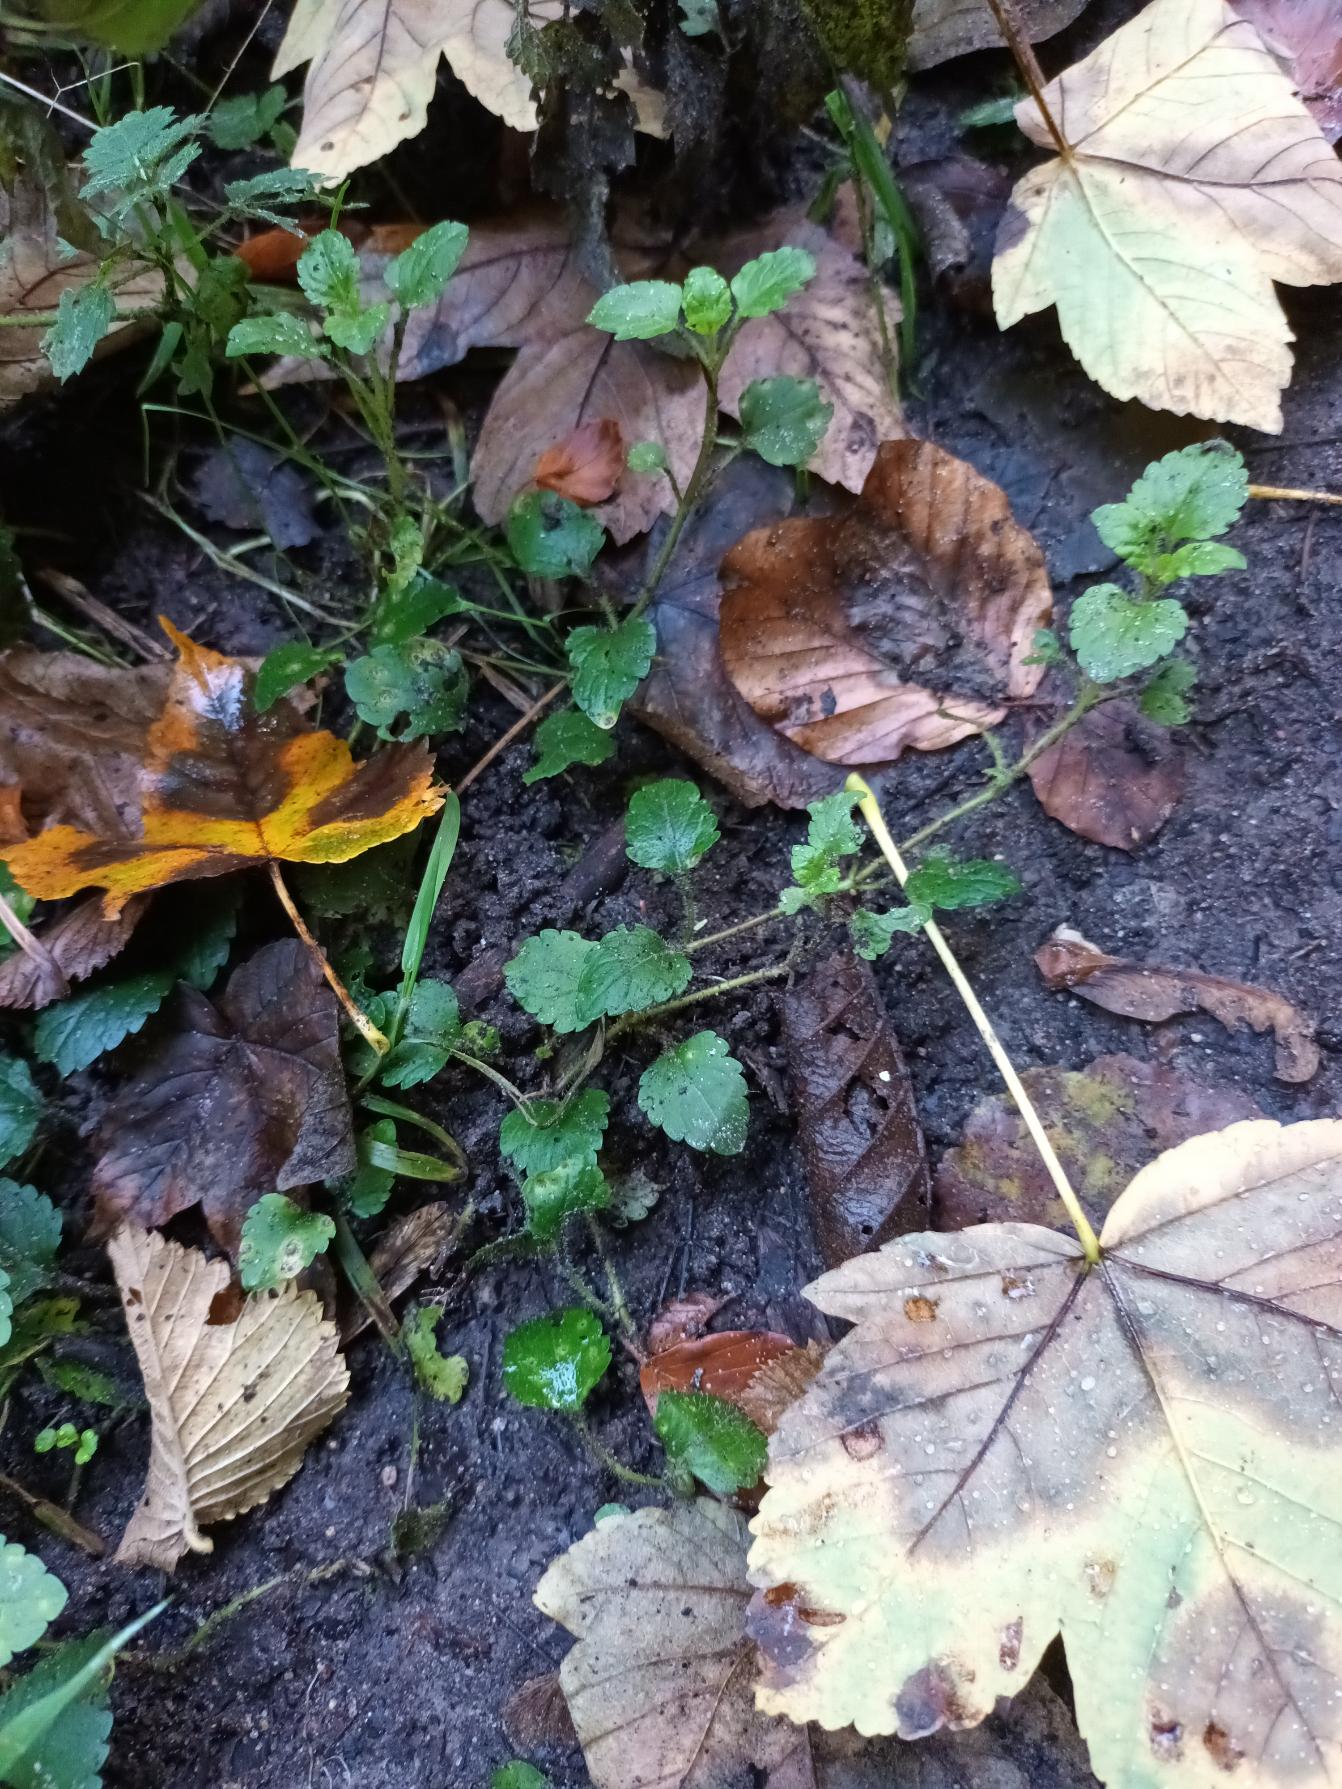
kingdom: Plantae
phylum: Tracheophyta
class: Magnoliopsida
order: Lamiales
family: Plantaginaceae
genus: Veronica
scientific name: Veronica montana
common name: Bjerg-ærenpris
